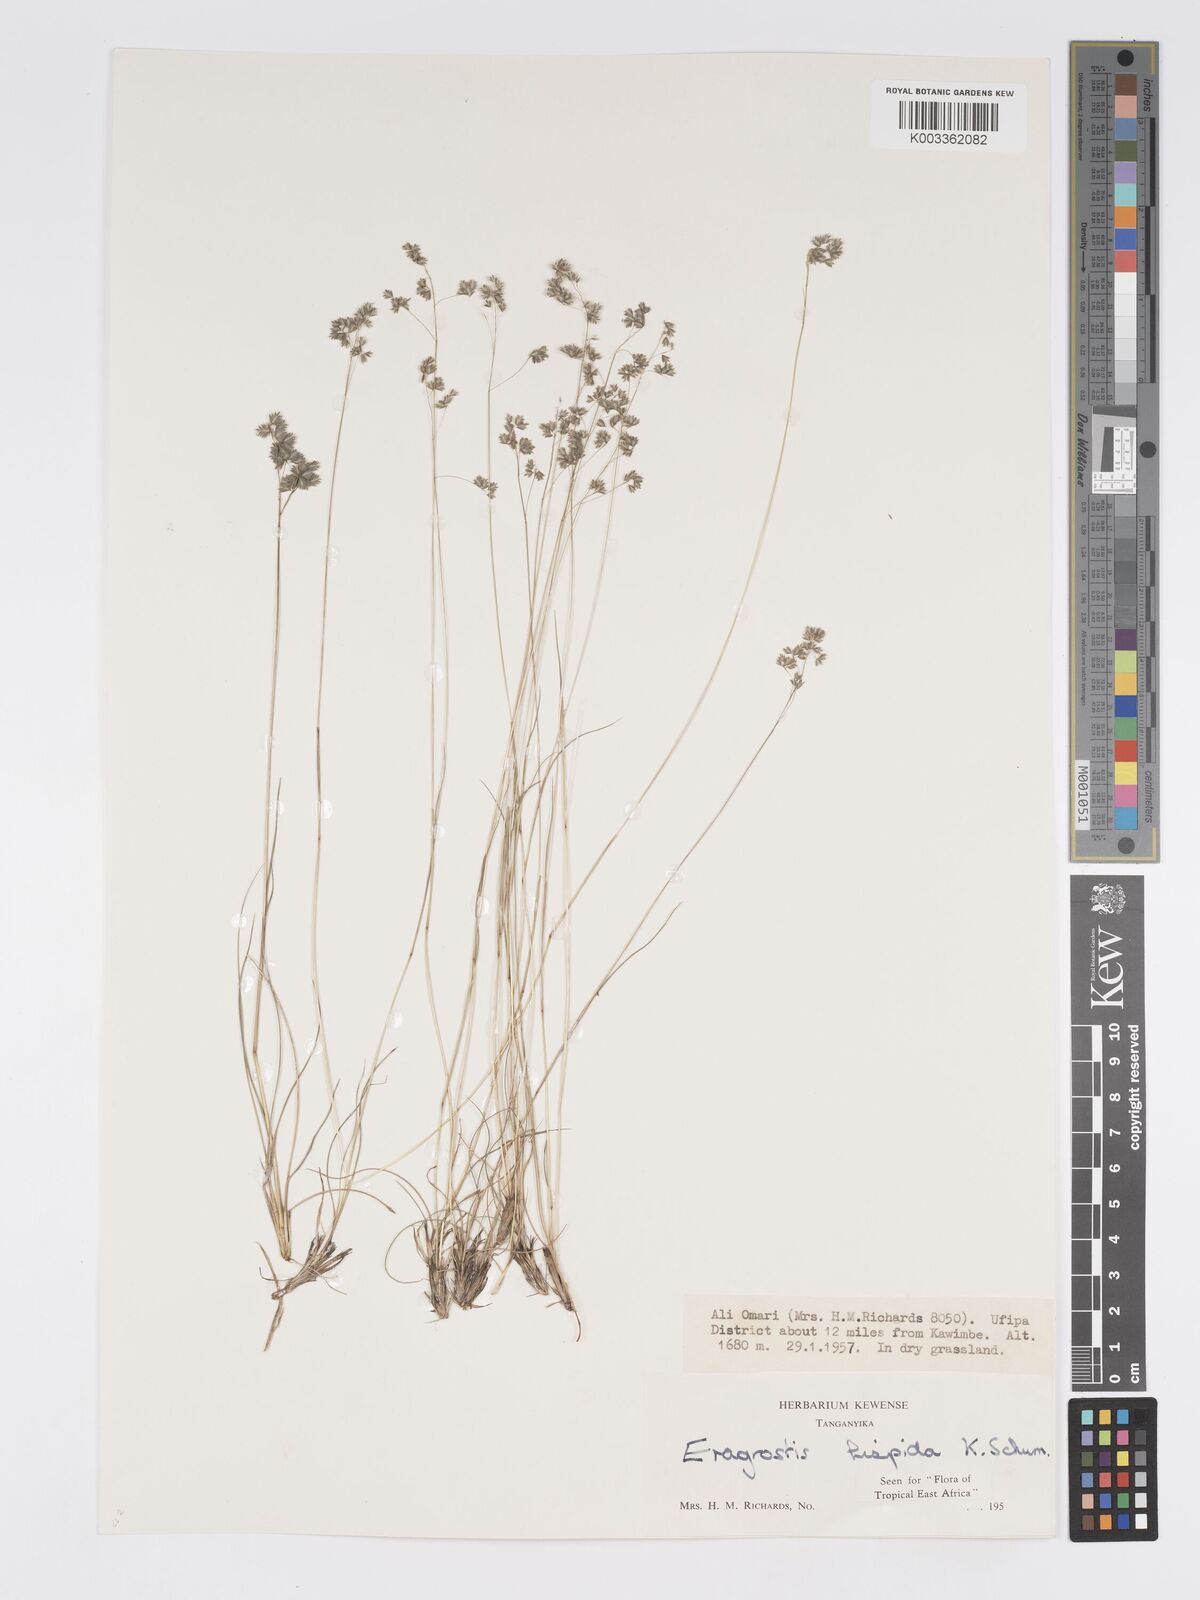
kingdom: Plantae
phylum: Tracheophyta
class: Liliopsida
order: Poales
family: Poaceae
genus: Eragrostis
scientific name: Eragrostis hispida
